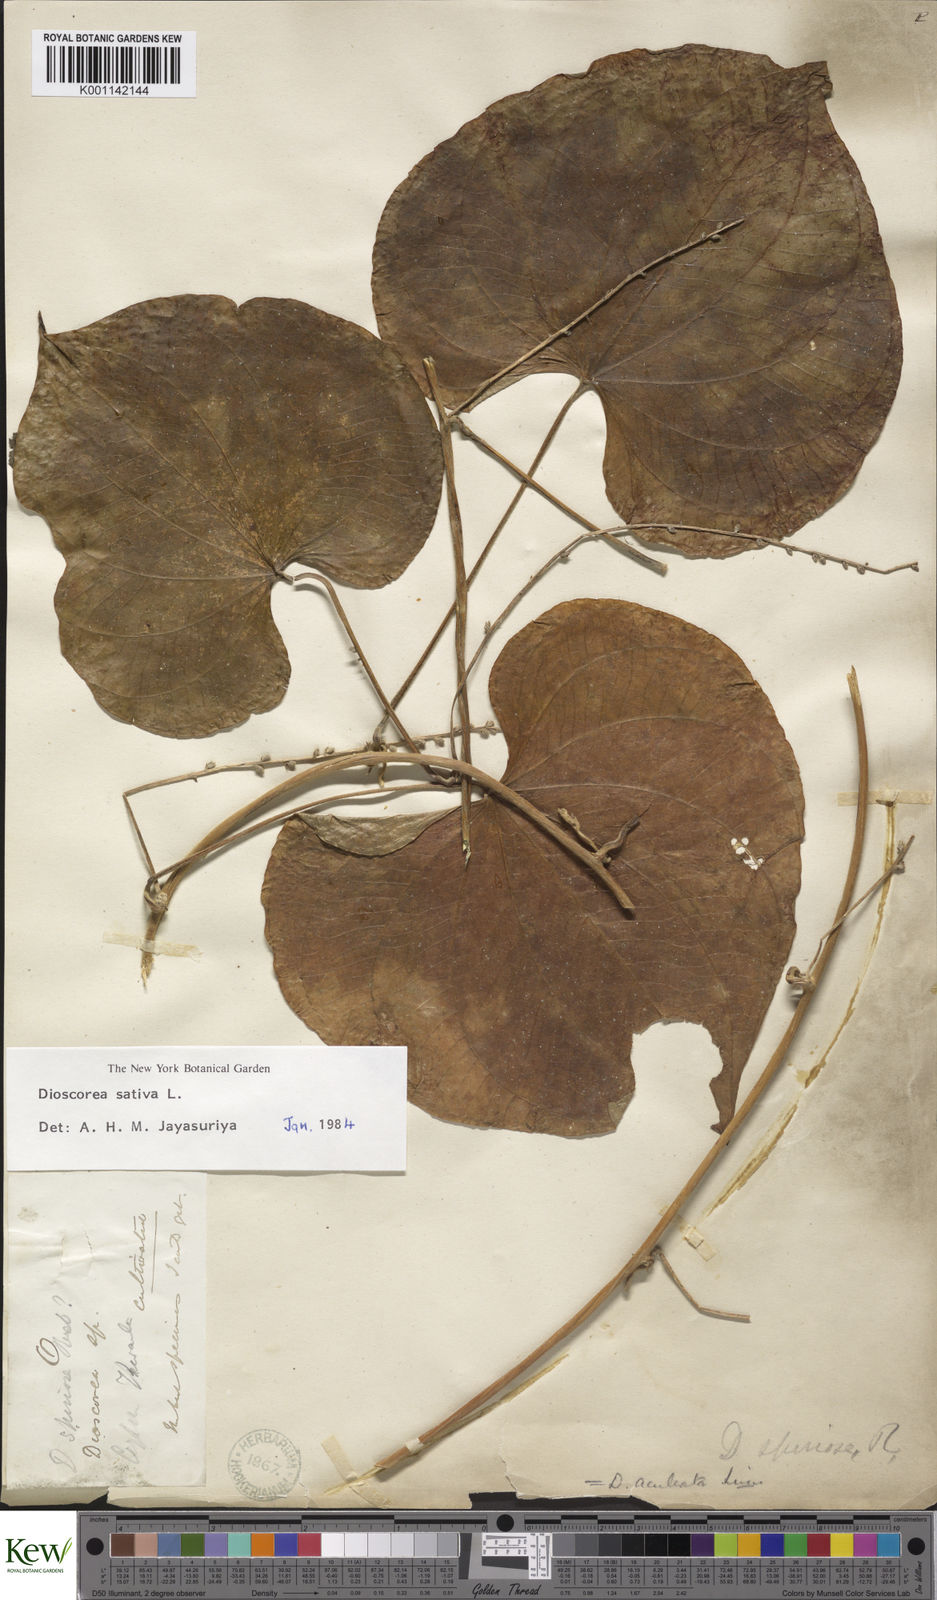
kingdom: Plantae
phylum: Tracheophyta
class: Liliopsida
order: Dioscoreales
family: Dioscoreaceae
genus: Dioscorea
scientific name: Dioscorea esculenta
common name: Chinese yam
